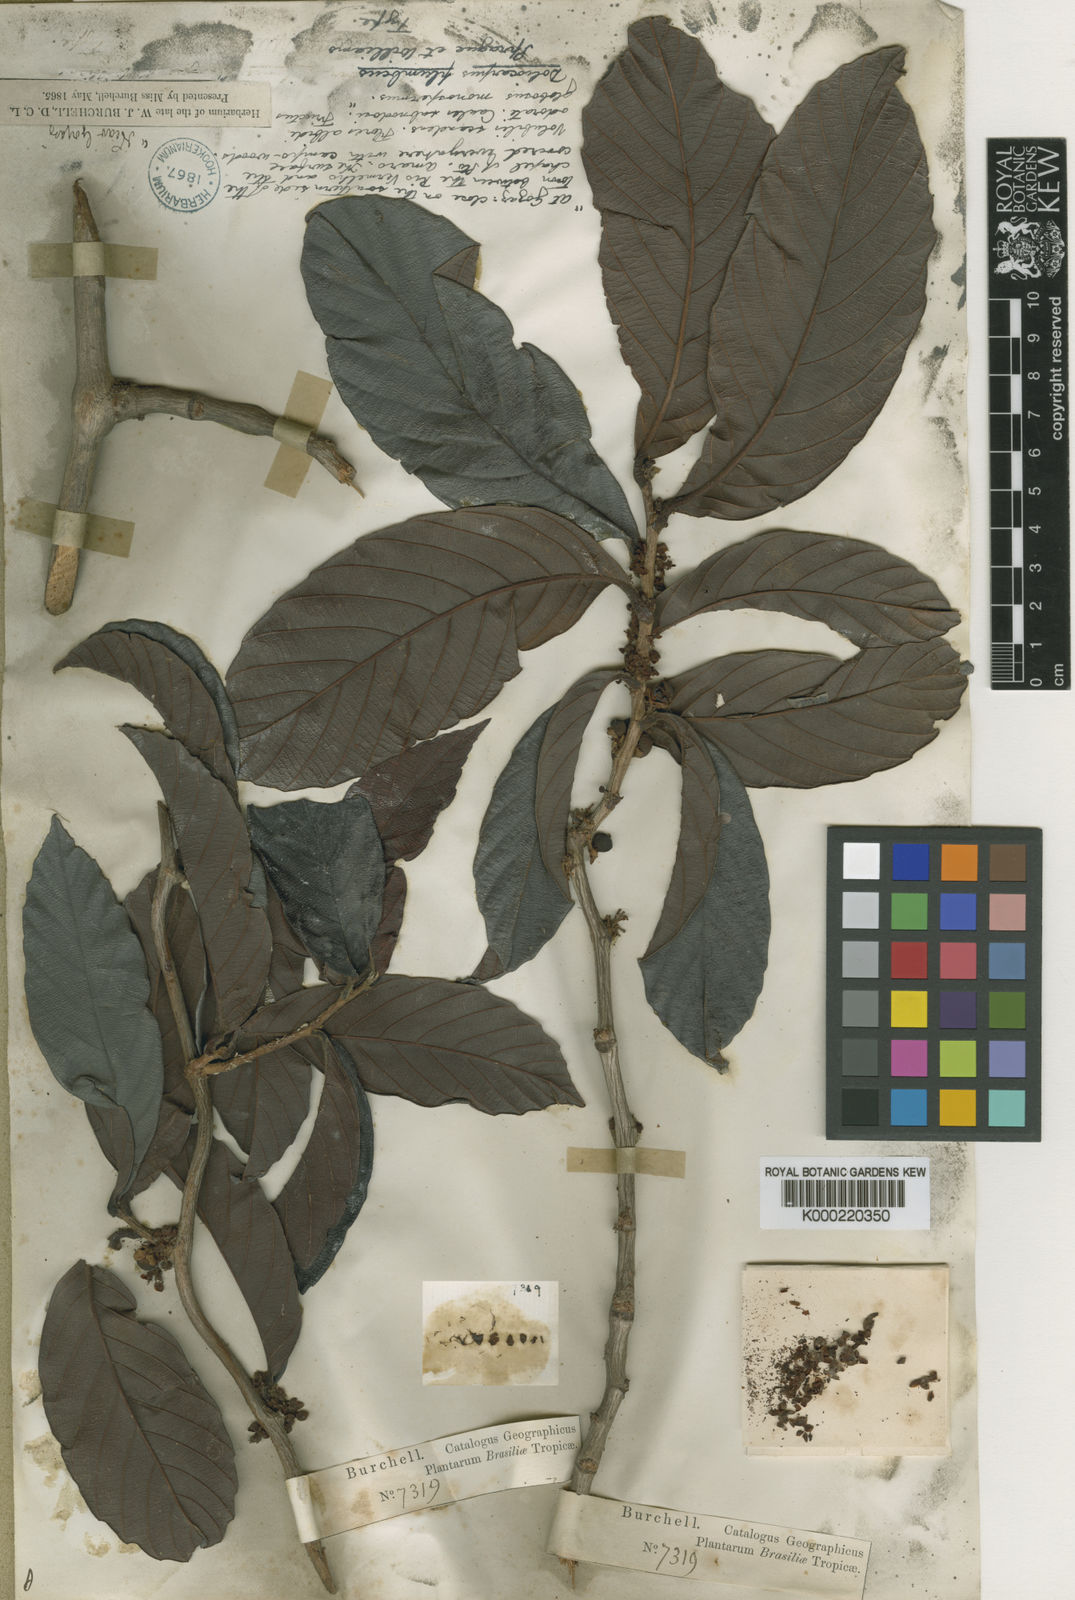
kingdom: Plantae
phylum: Tracheophyta
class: Magnoliopsida
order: Dilleniales
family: Dilleniaceae
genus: Doliocarpus
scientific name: Doliocarpus
